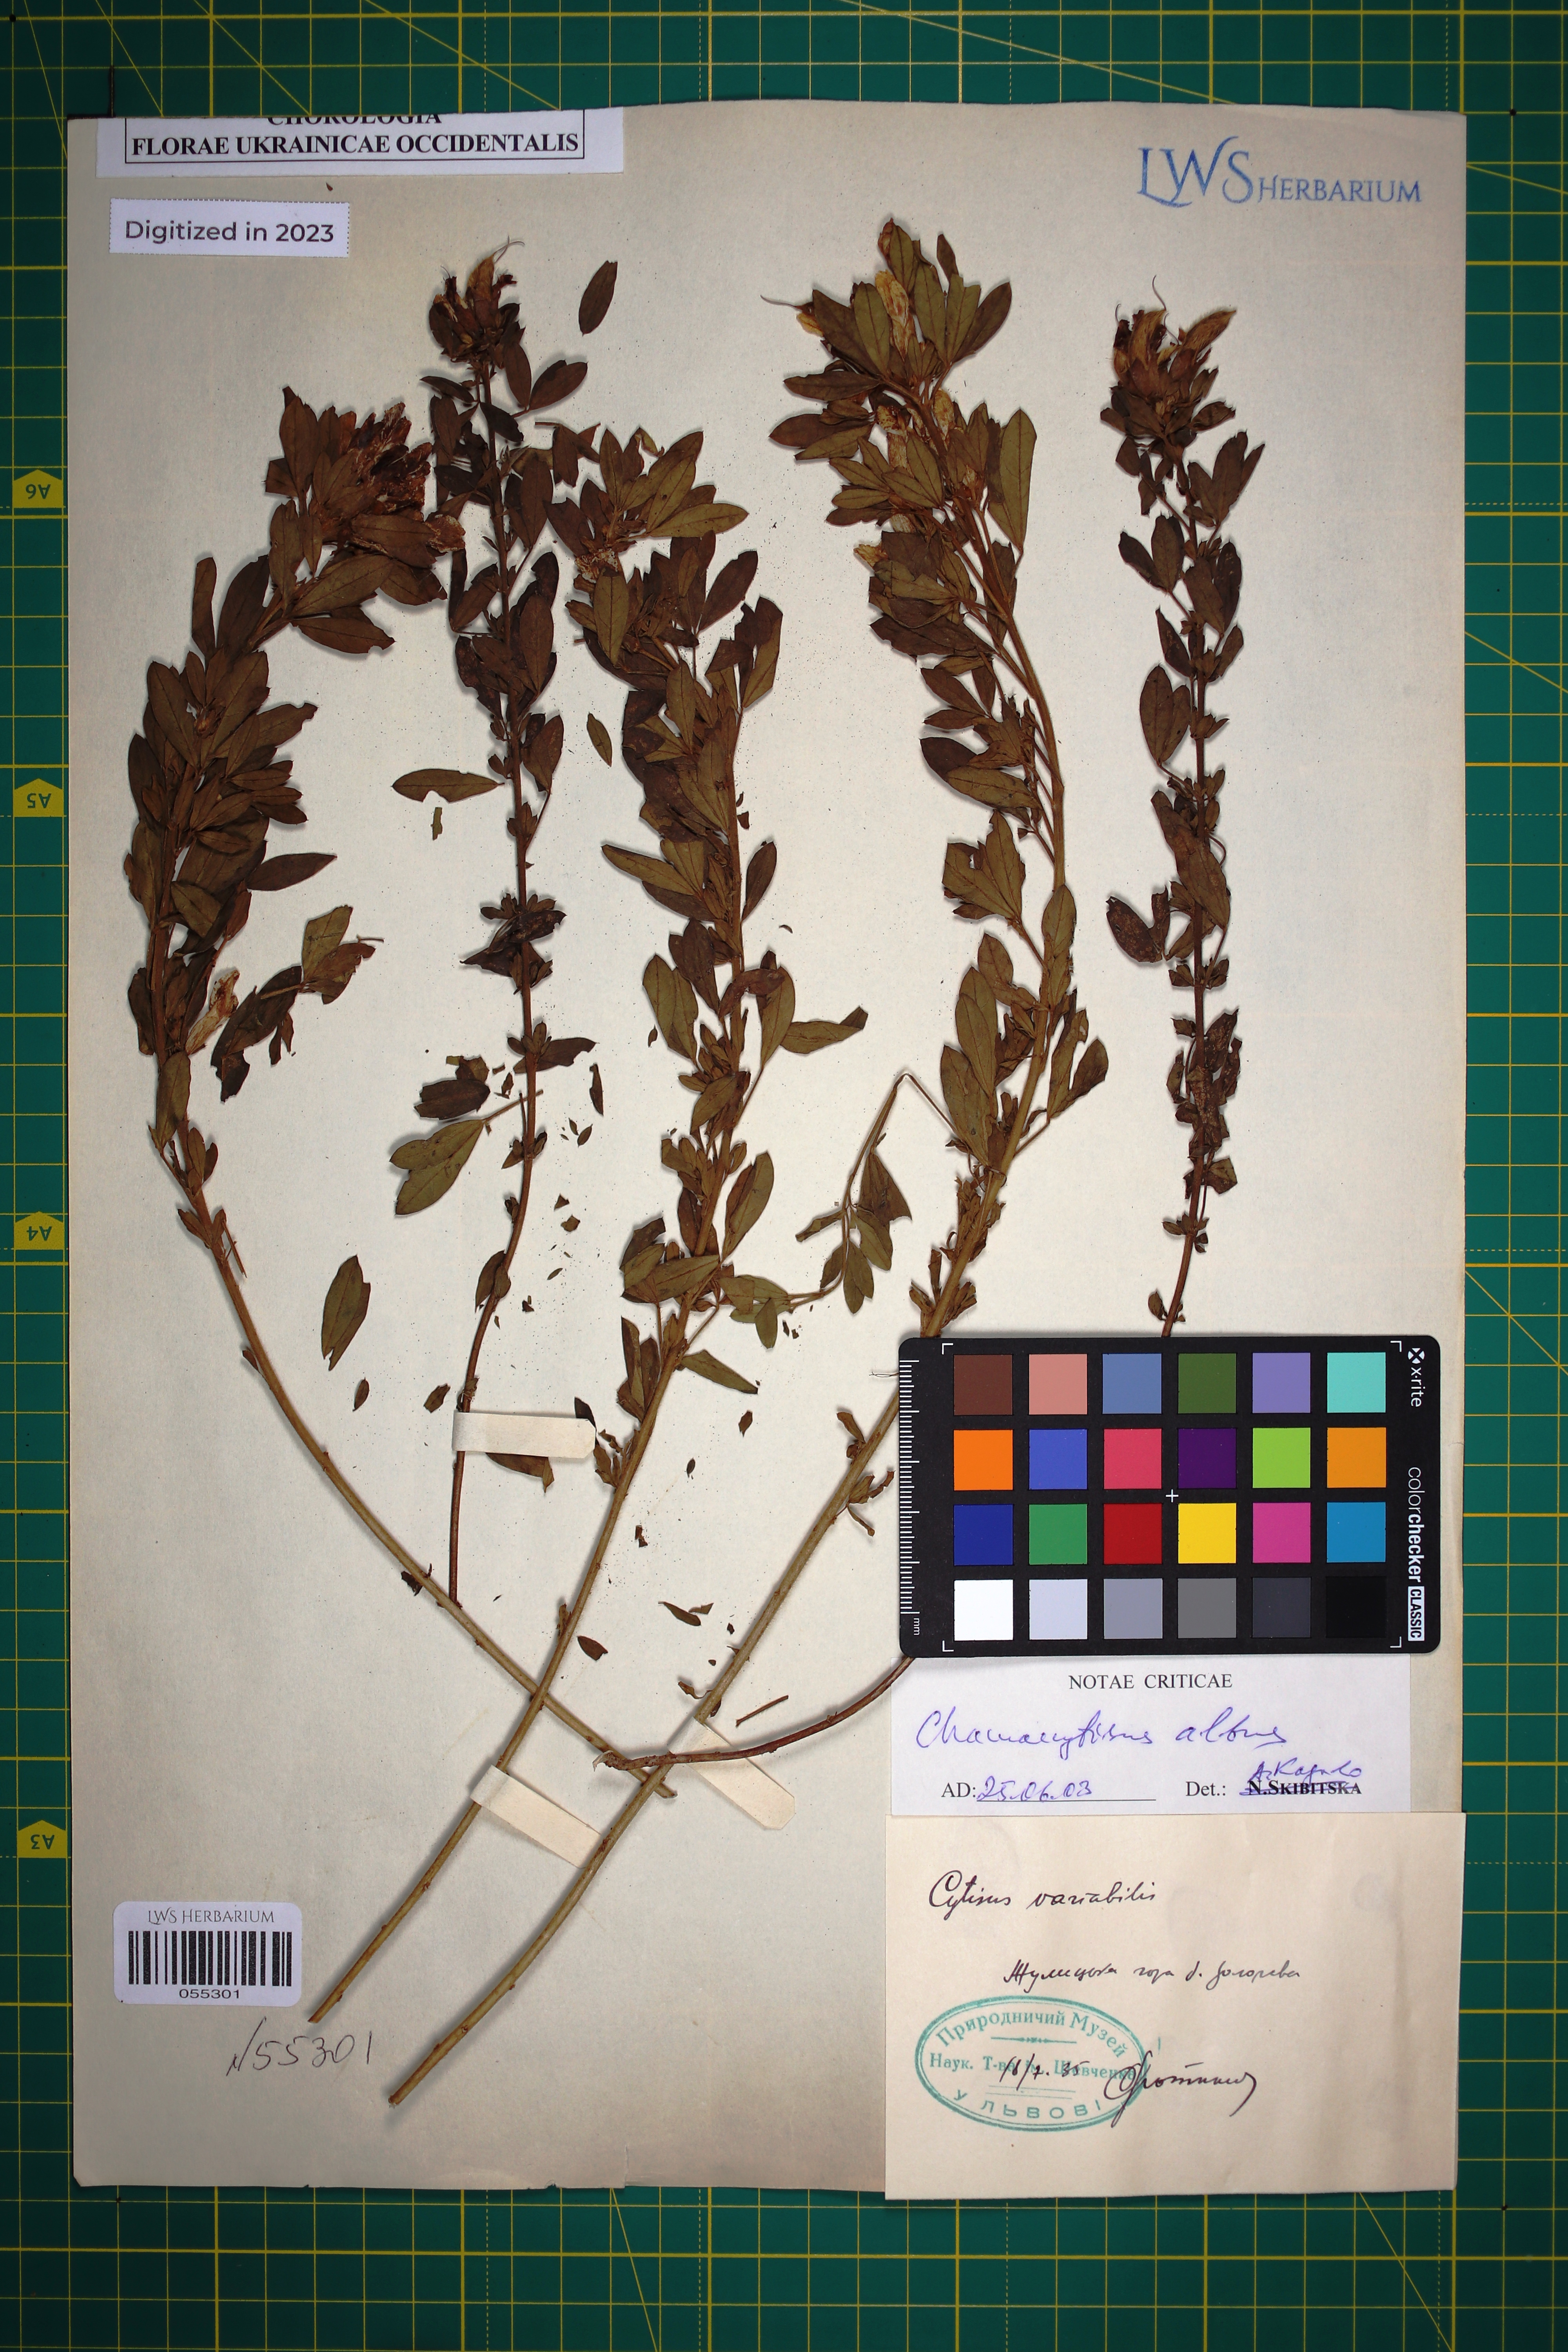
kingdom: Plantae
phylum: Tracheophyta
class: Magnoliopsida
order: Fabales
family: Fabaceae
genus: Chamaecytisus
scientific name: Chamaecytisus albus
